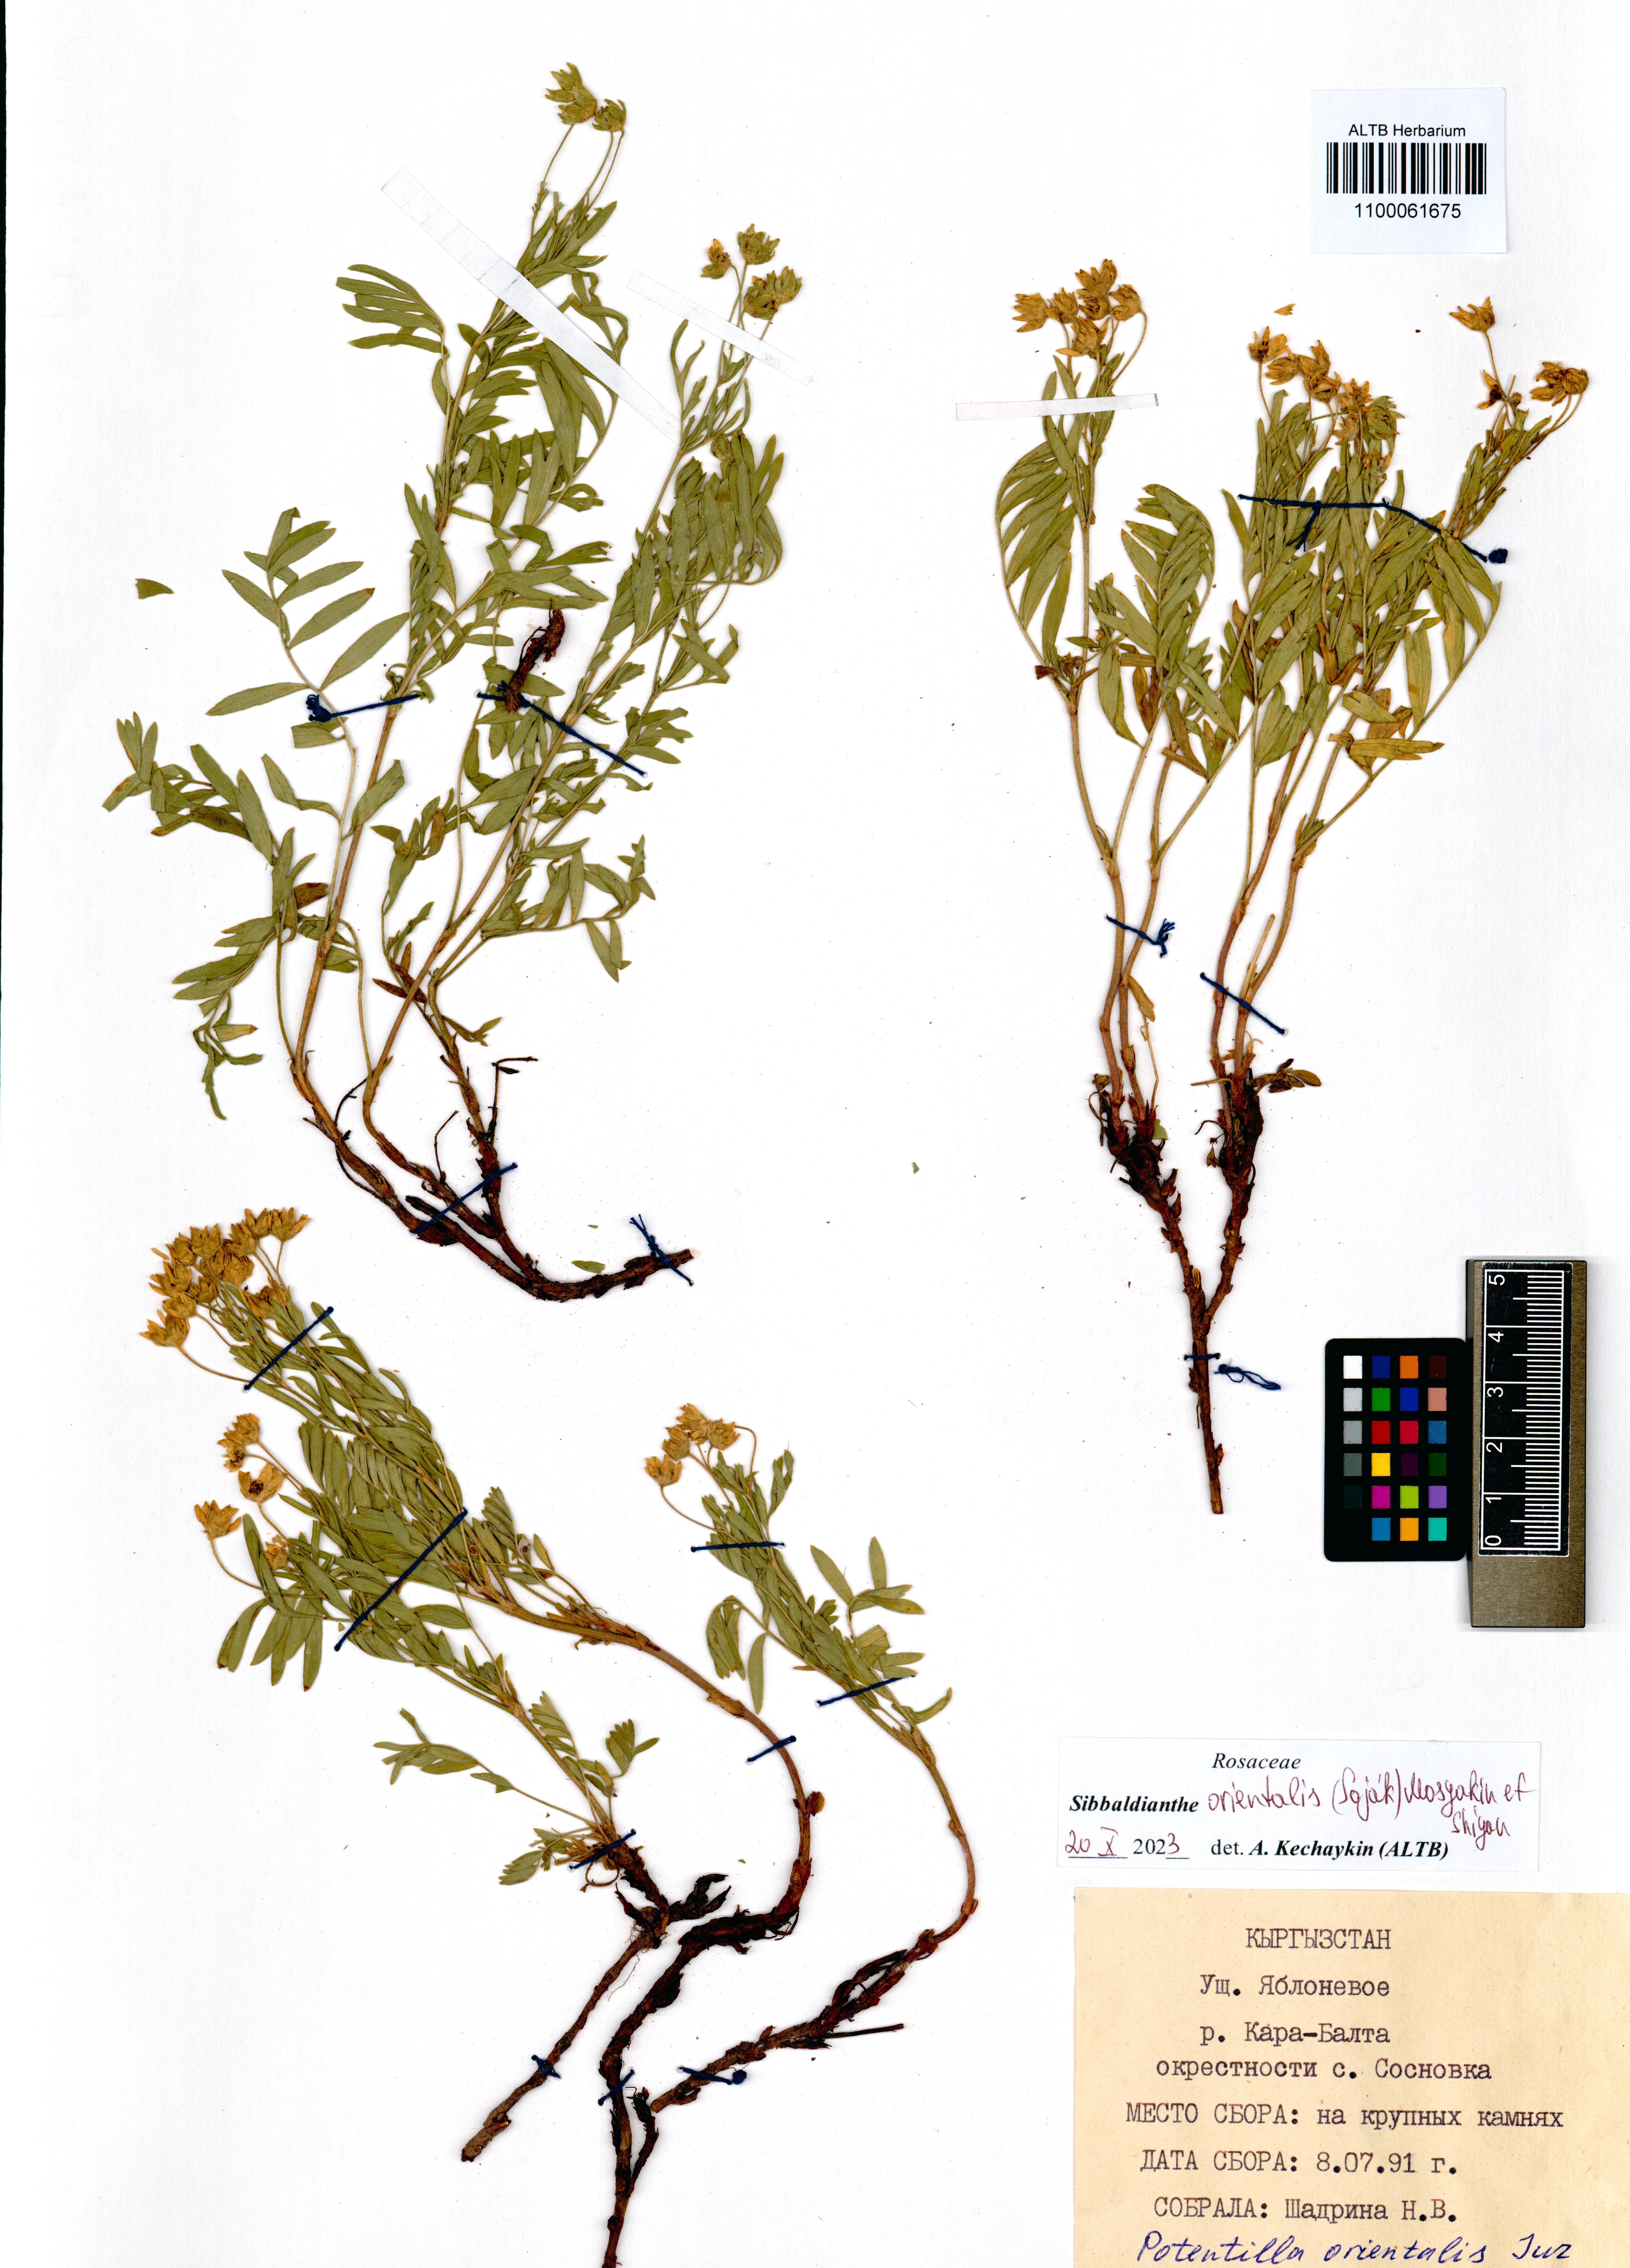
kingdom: Plantae
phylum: Tracheophyta
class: Magnoliopsida
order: Rosales
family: Rosaceae
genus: Sibbaldianthe
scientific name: Sibbaldianthe orientalis
